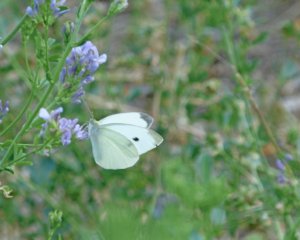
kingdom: Animalia
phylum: Arthropoda
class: Insecta
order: Lepidoptera
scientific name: Lepidoptera
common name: Butterflies
